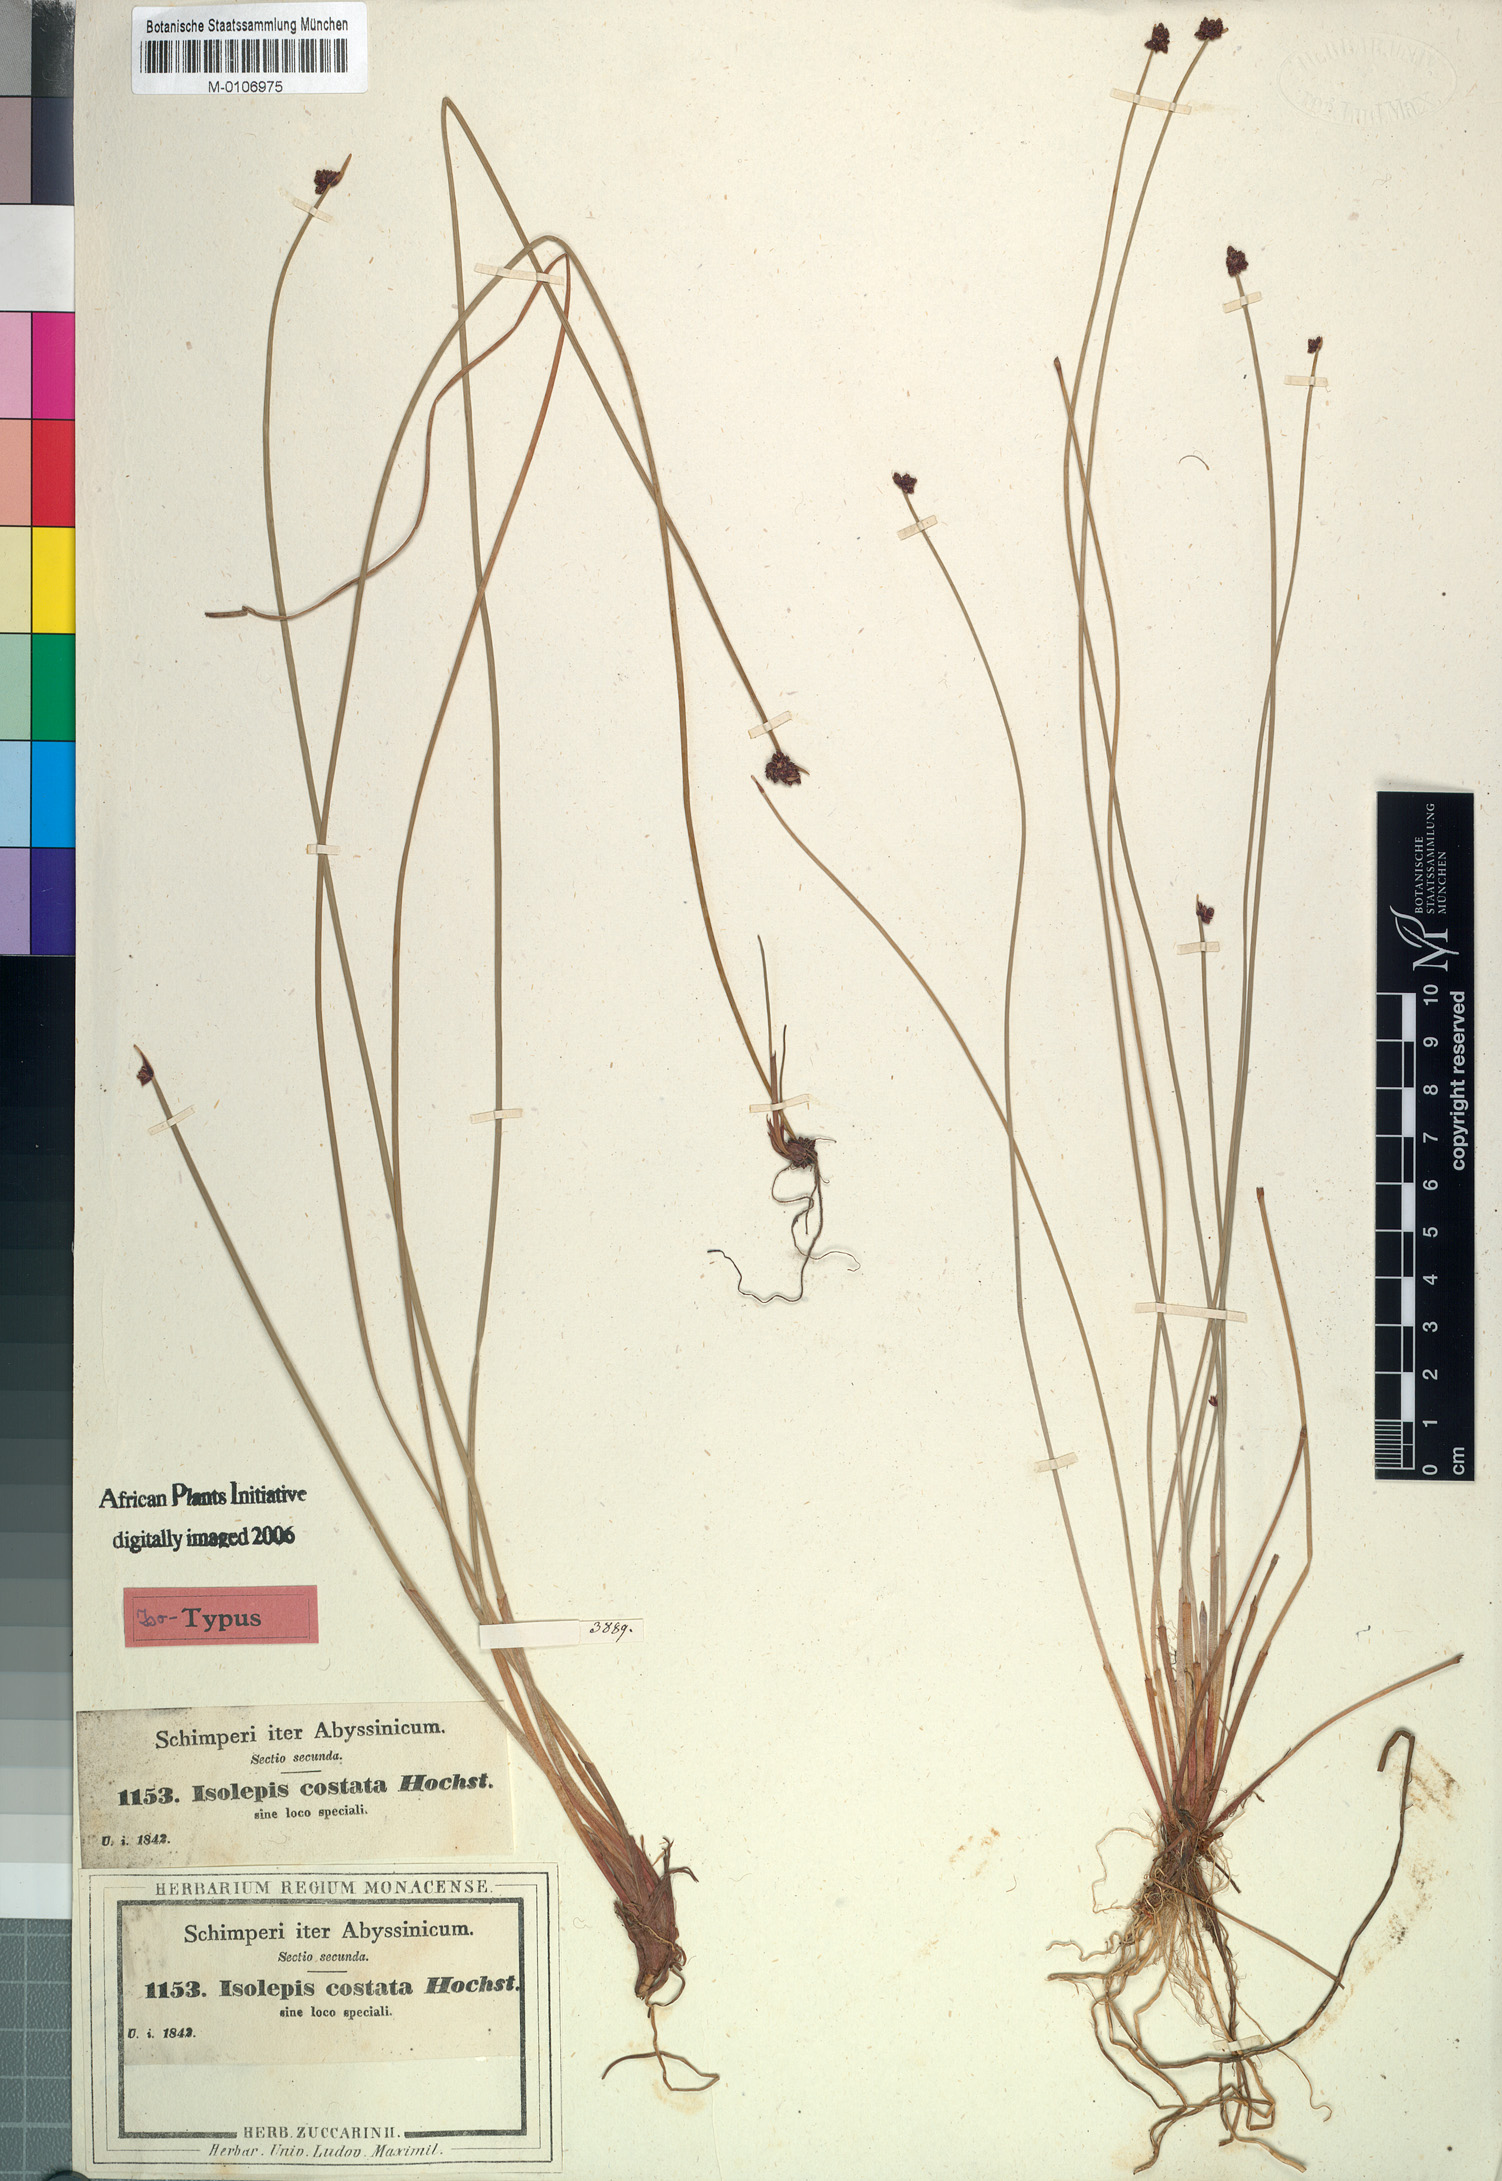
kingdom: Plantae
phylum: Tracheophyta
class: Liliopsida
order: Poales
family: Cyperaceae
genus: Isolepis
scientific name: Isolepis costata
